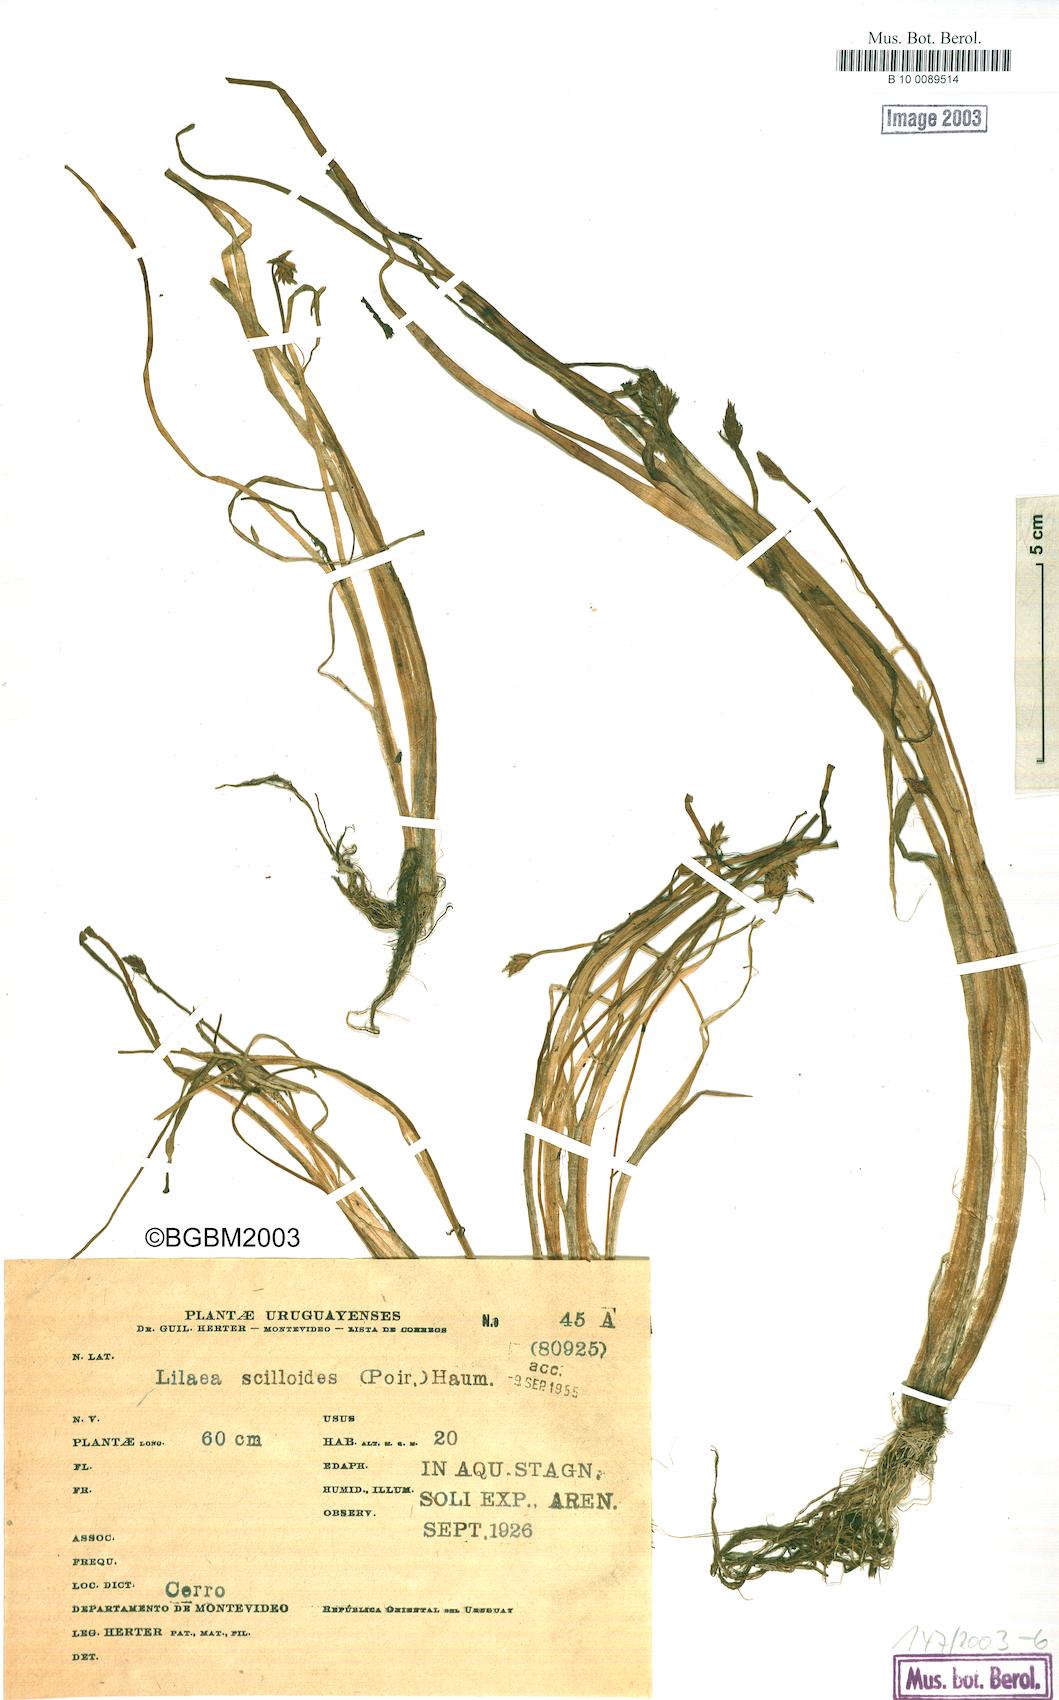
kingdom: Plantae
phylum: Tracheophyta
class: Liliopsida
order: Alismatales
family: Juncaginaceae
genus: Triglochin
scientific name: Triglochin scilloides
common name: Awl-leaved lilaea
